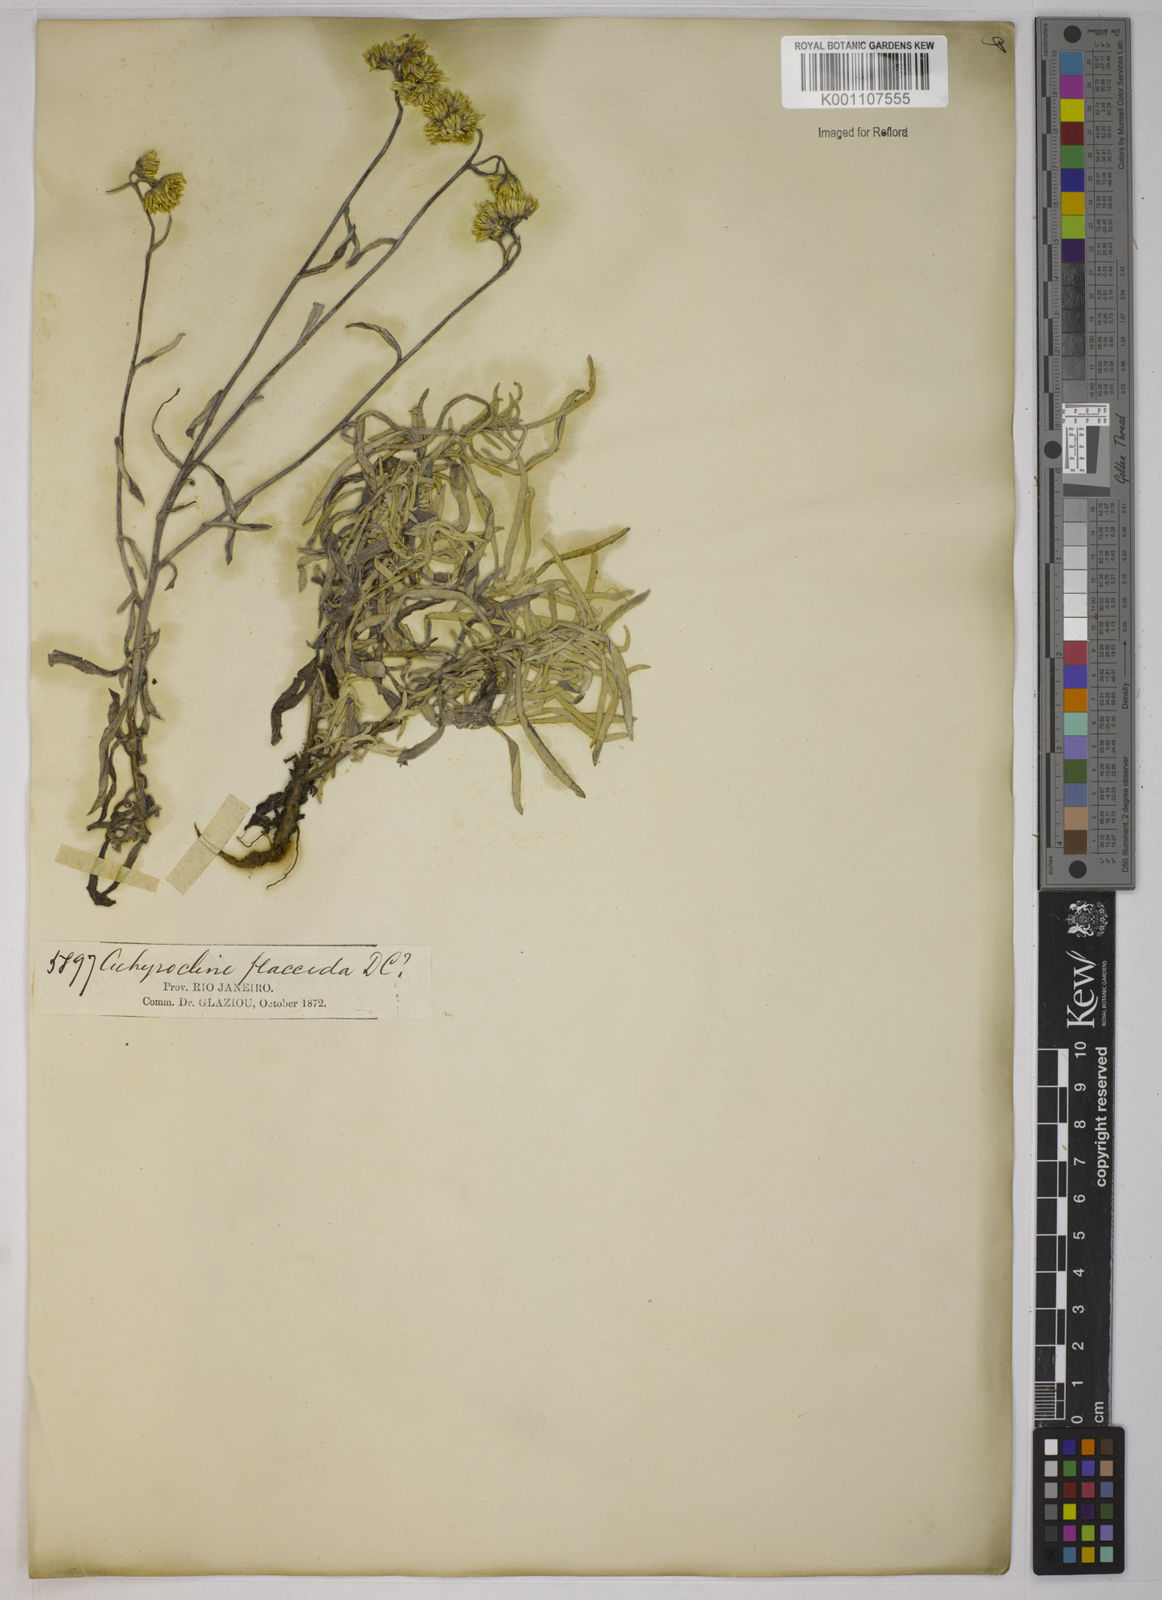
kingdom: Plantae
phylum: Tracheophyta
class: Magnoliopsida
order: Asterales
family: Asteraceae
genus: Achyrocline
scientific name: Achyrocline vargasiana
